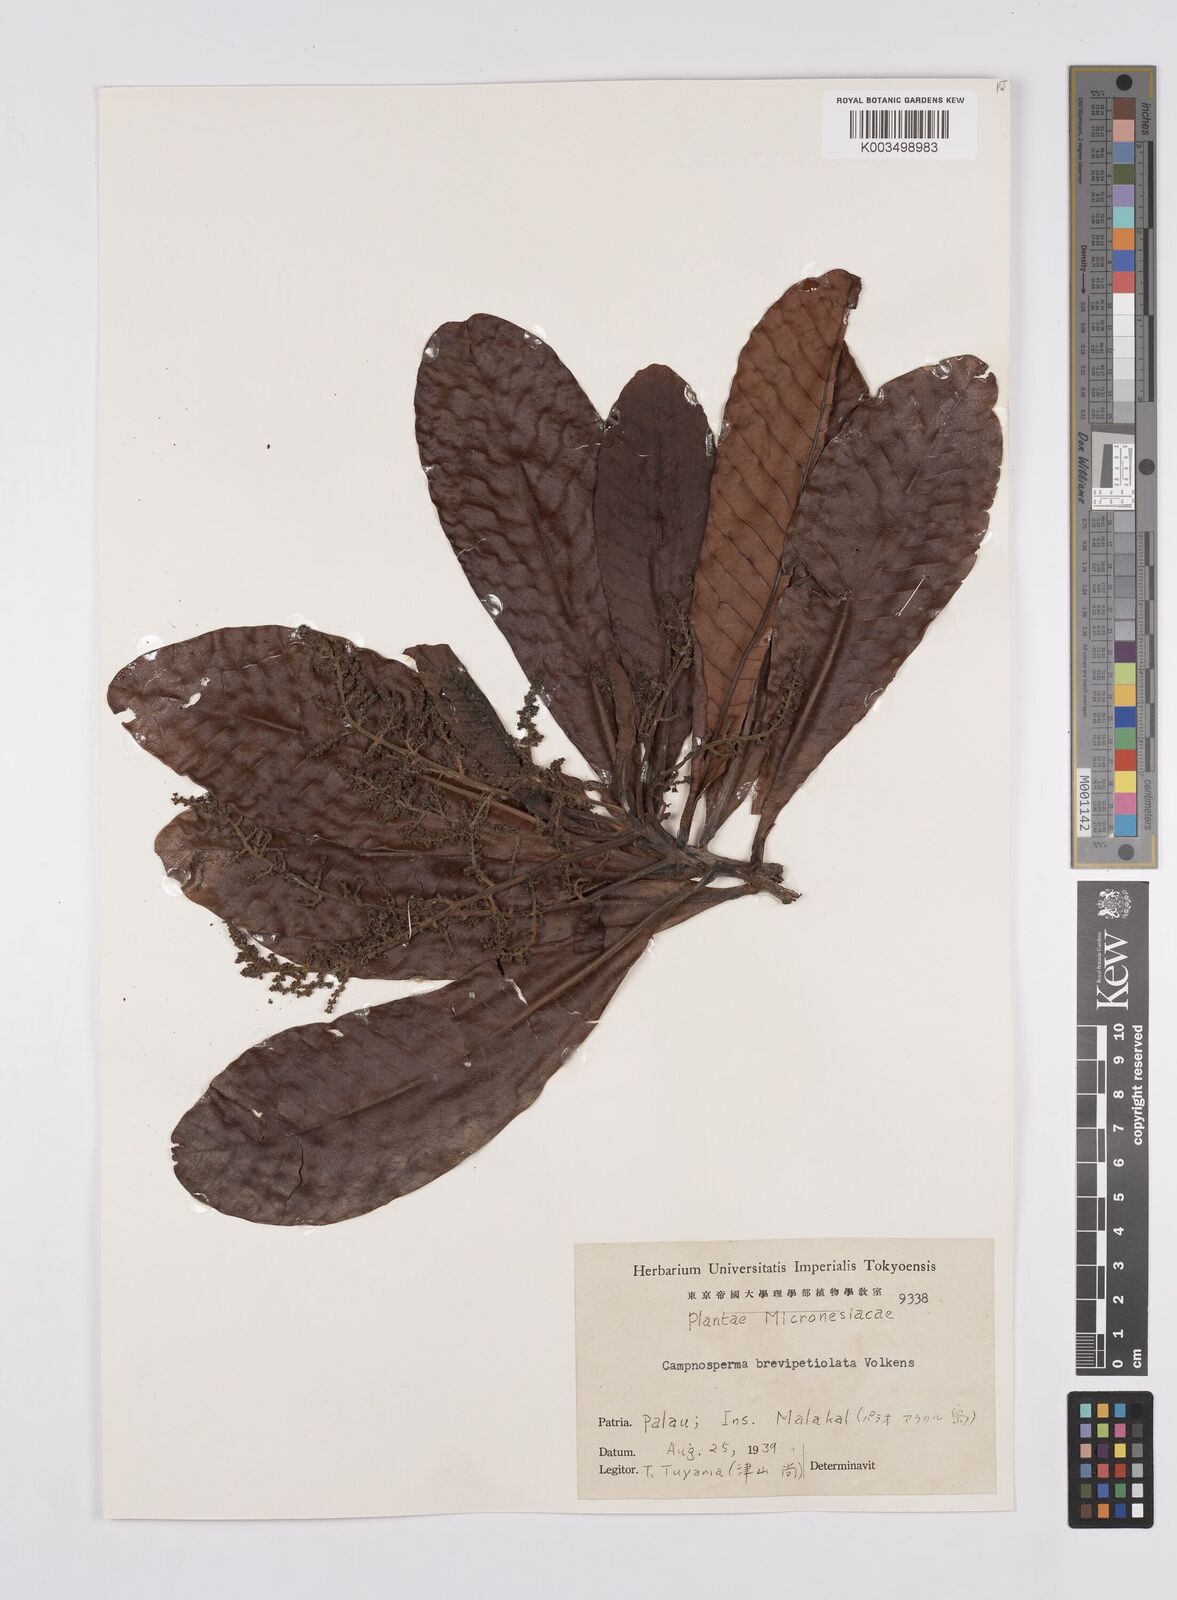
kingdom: Plantae
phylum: Tracheophyta
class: Magnoliopsida
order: Sapindales
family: Anacardiaceae
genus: Campnosperma
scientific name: Campnosperma brevipetiolatum
